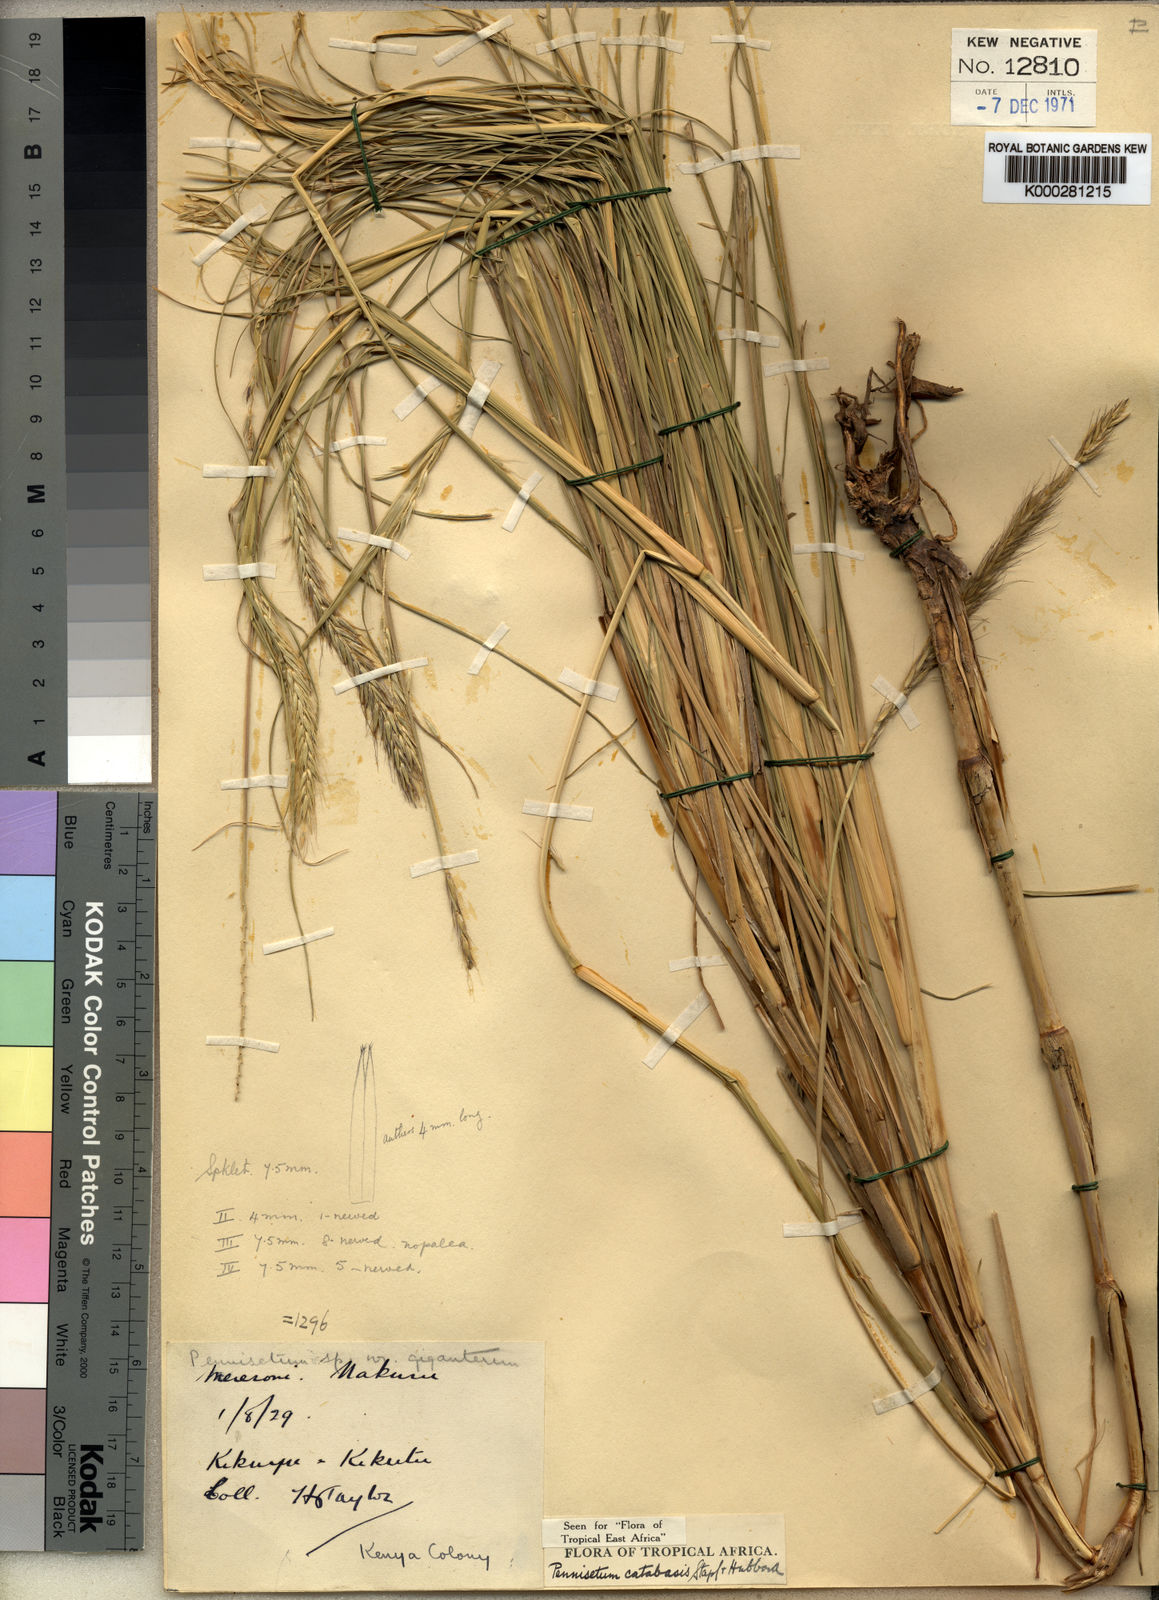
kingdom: Plantae
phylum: Tracheophyta
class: Liliopsida
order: Poales
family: Poaceae
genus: Cenchrus
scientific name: Cenchrus hohenackeri
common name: Moya grass
